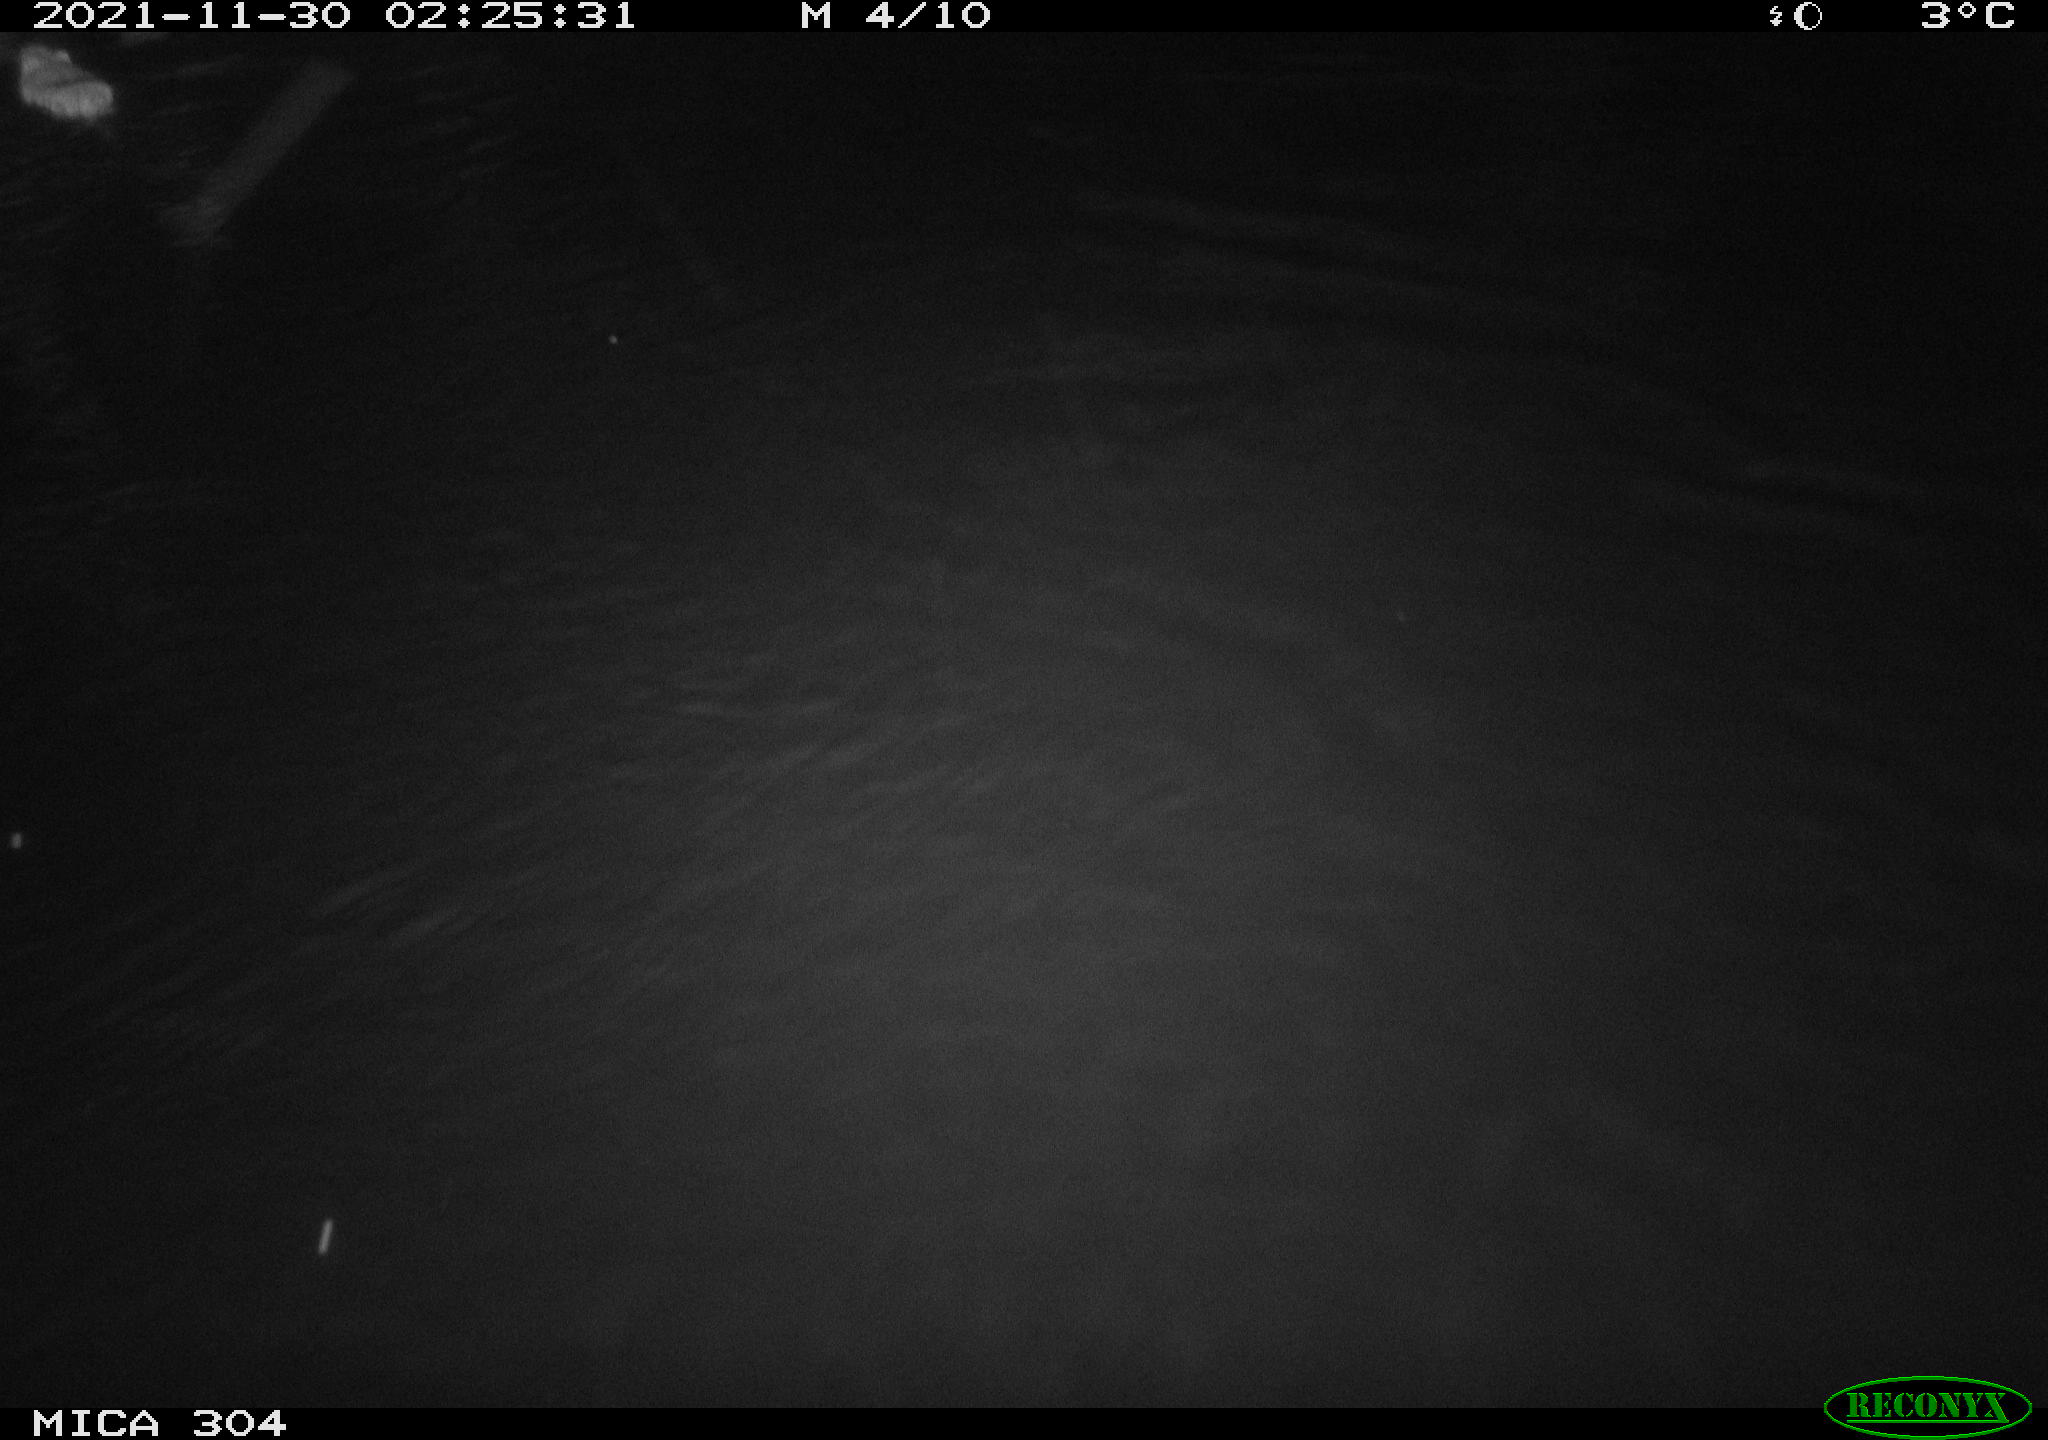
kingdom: Animalia
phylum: Chordata
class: Mammalia
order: Rodentia
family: Cricetidae
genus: Ondatra
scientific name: Ondatra zibethicus
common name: Muskrat
